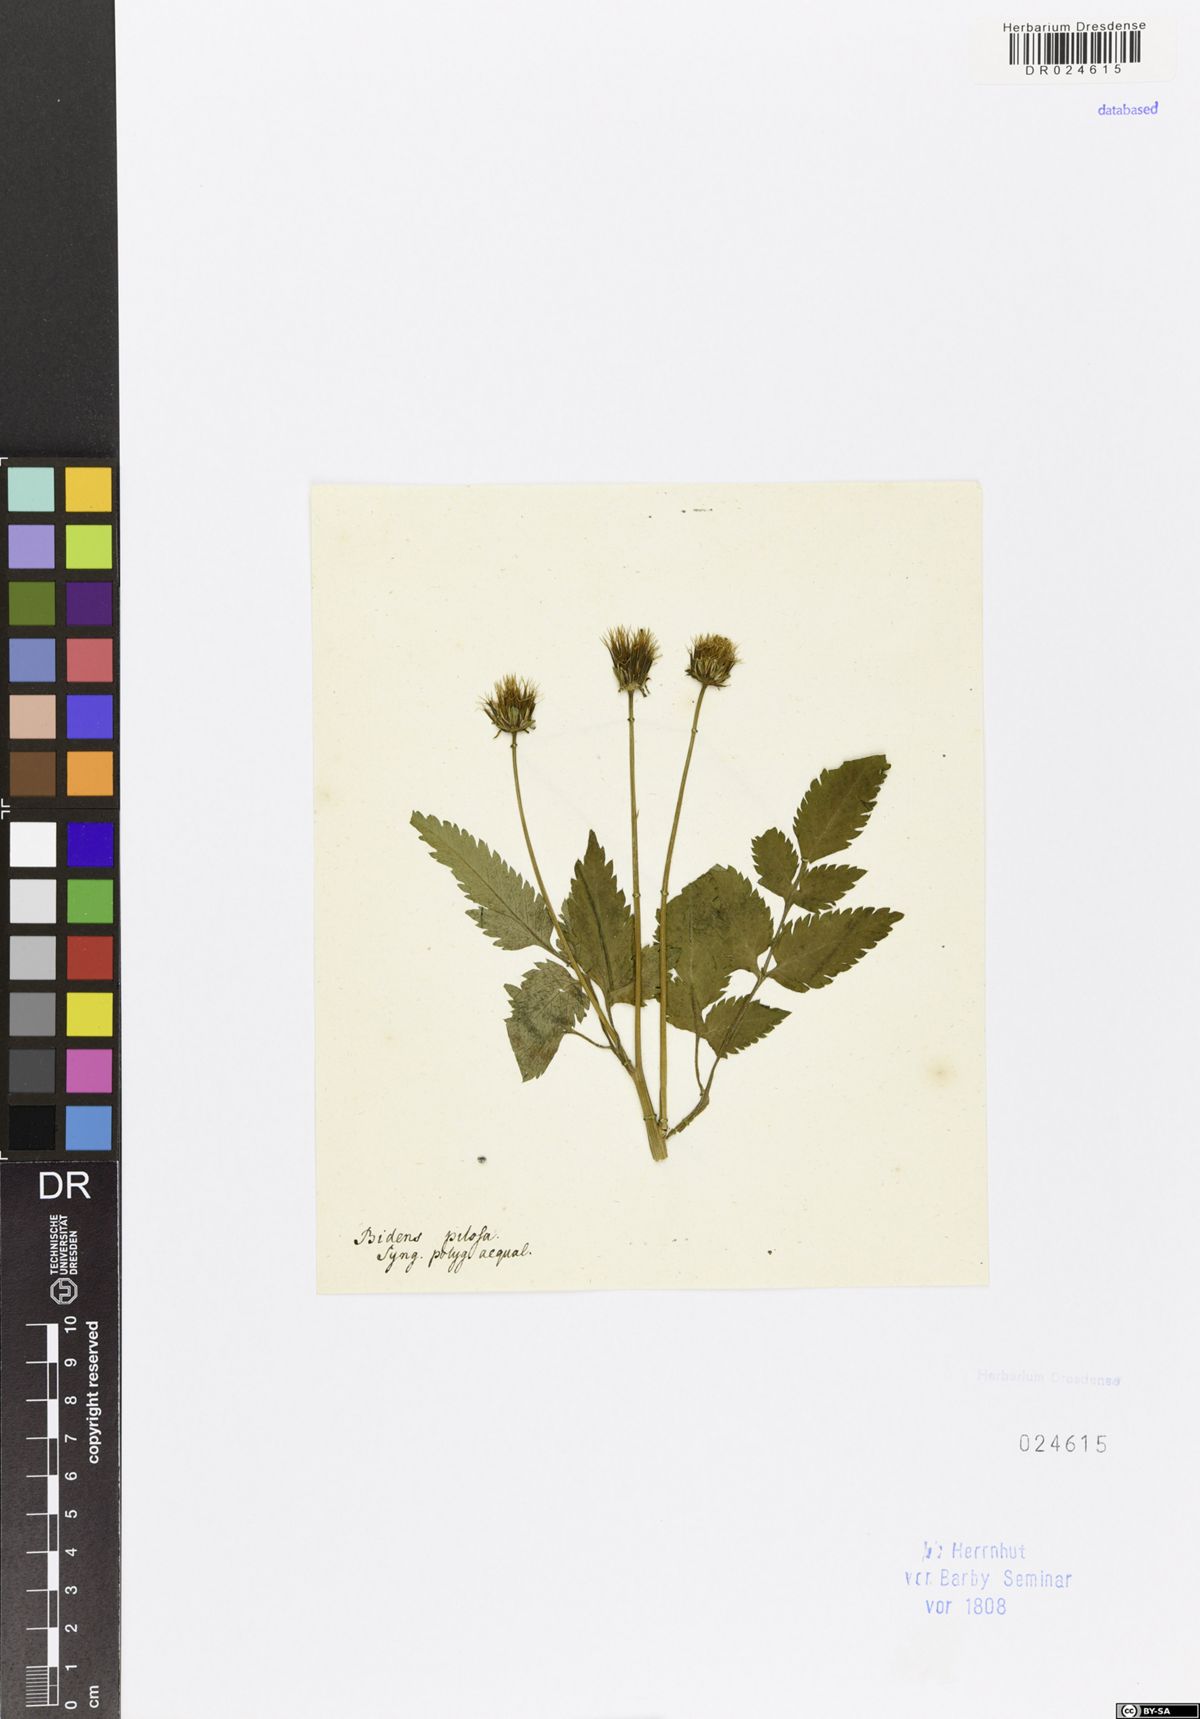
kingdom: Plantae
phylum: Tracheophyta
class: Magnoliopsida
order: Asterales
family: Asteraceae
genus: Bidens
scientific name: Bidens pilosa
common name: Black-jack
